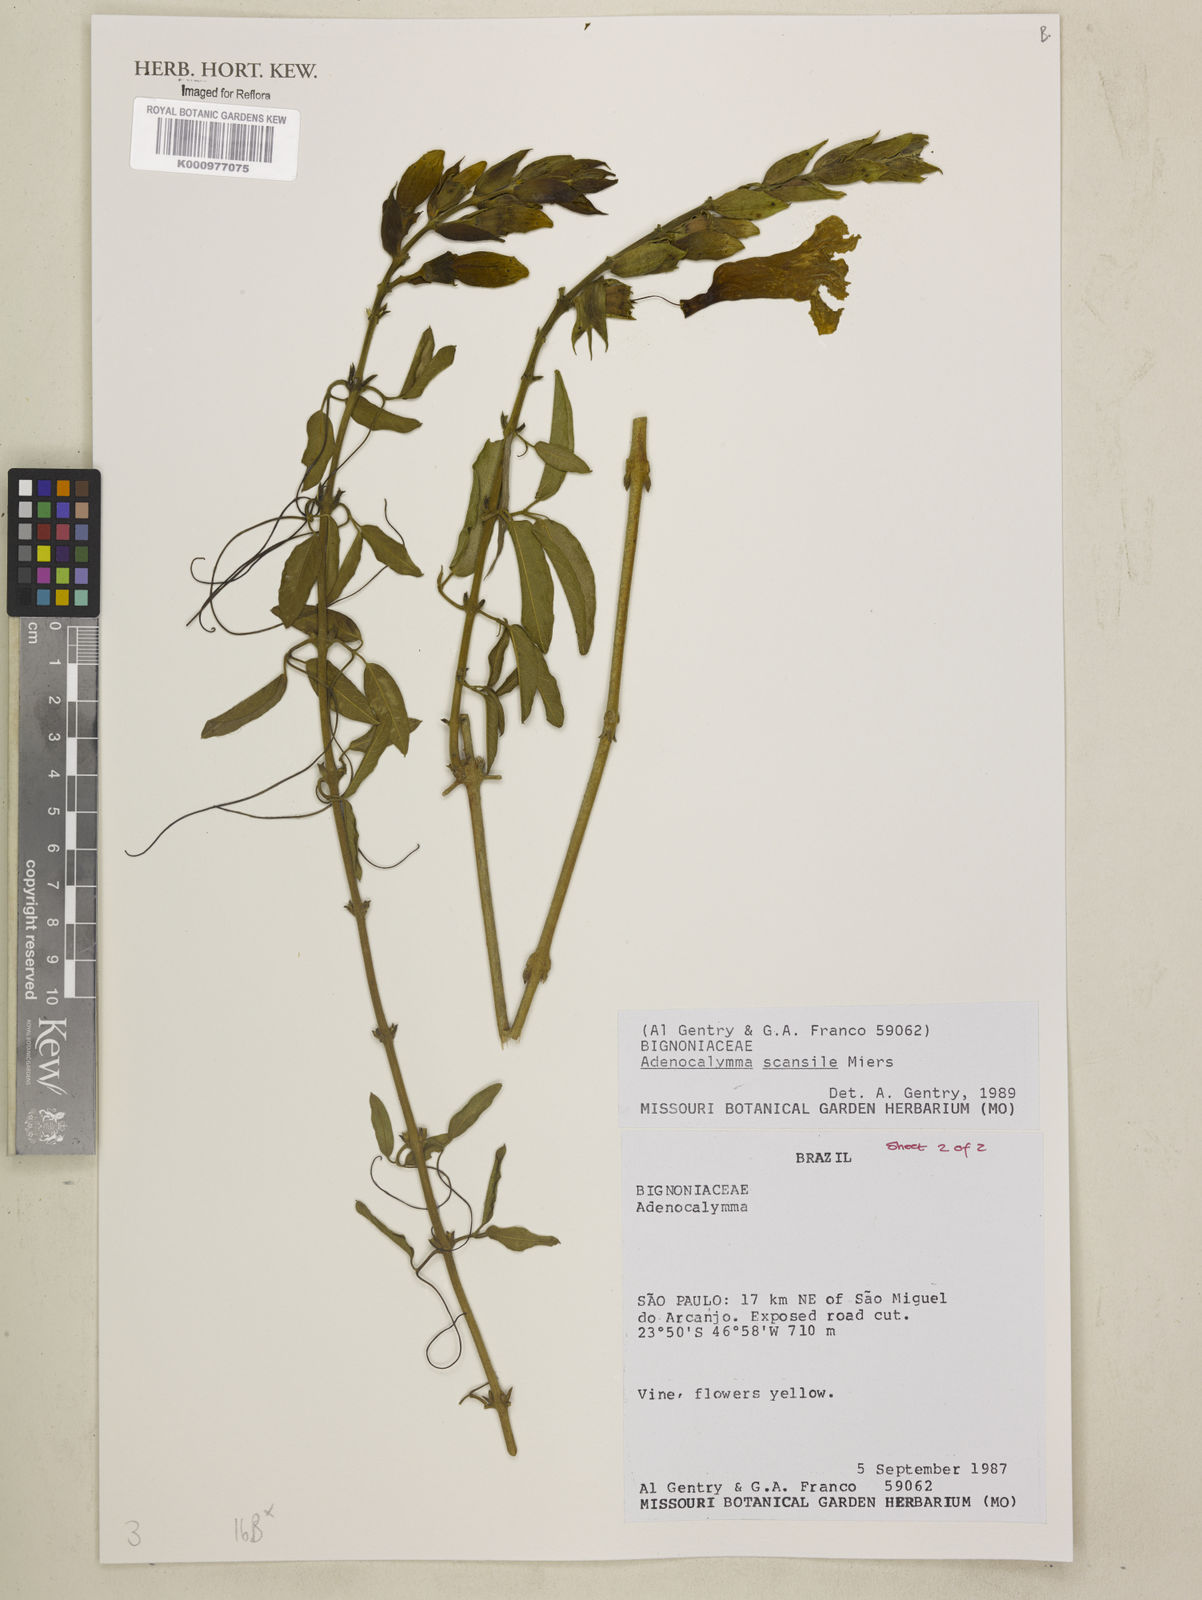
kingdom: Plantae
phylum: Tracheophyta
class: Magnoliopsida
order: Lamiales
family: Bignoniaceae
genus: Adenocalymma
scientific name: Adenocalymma scansile
